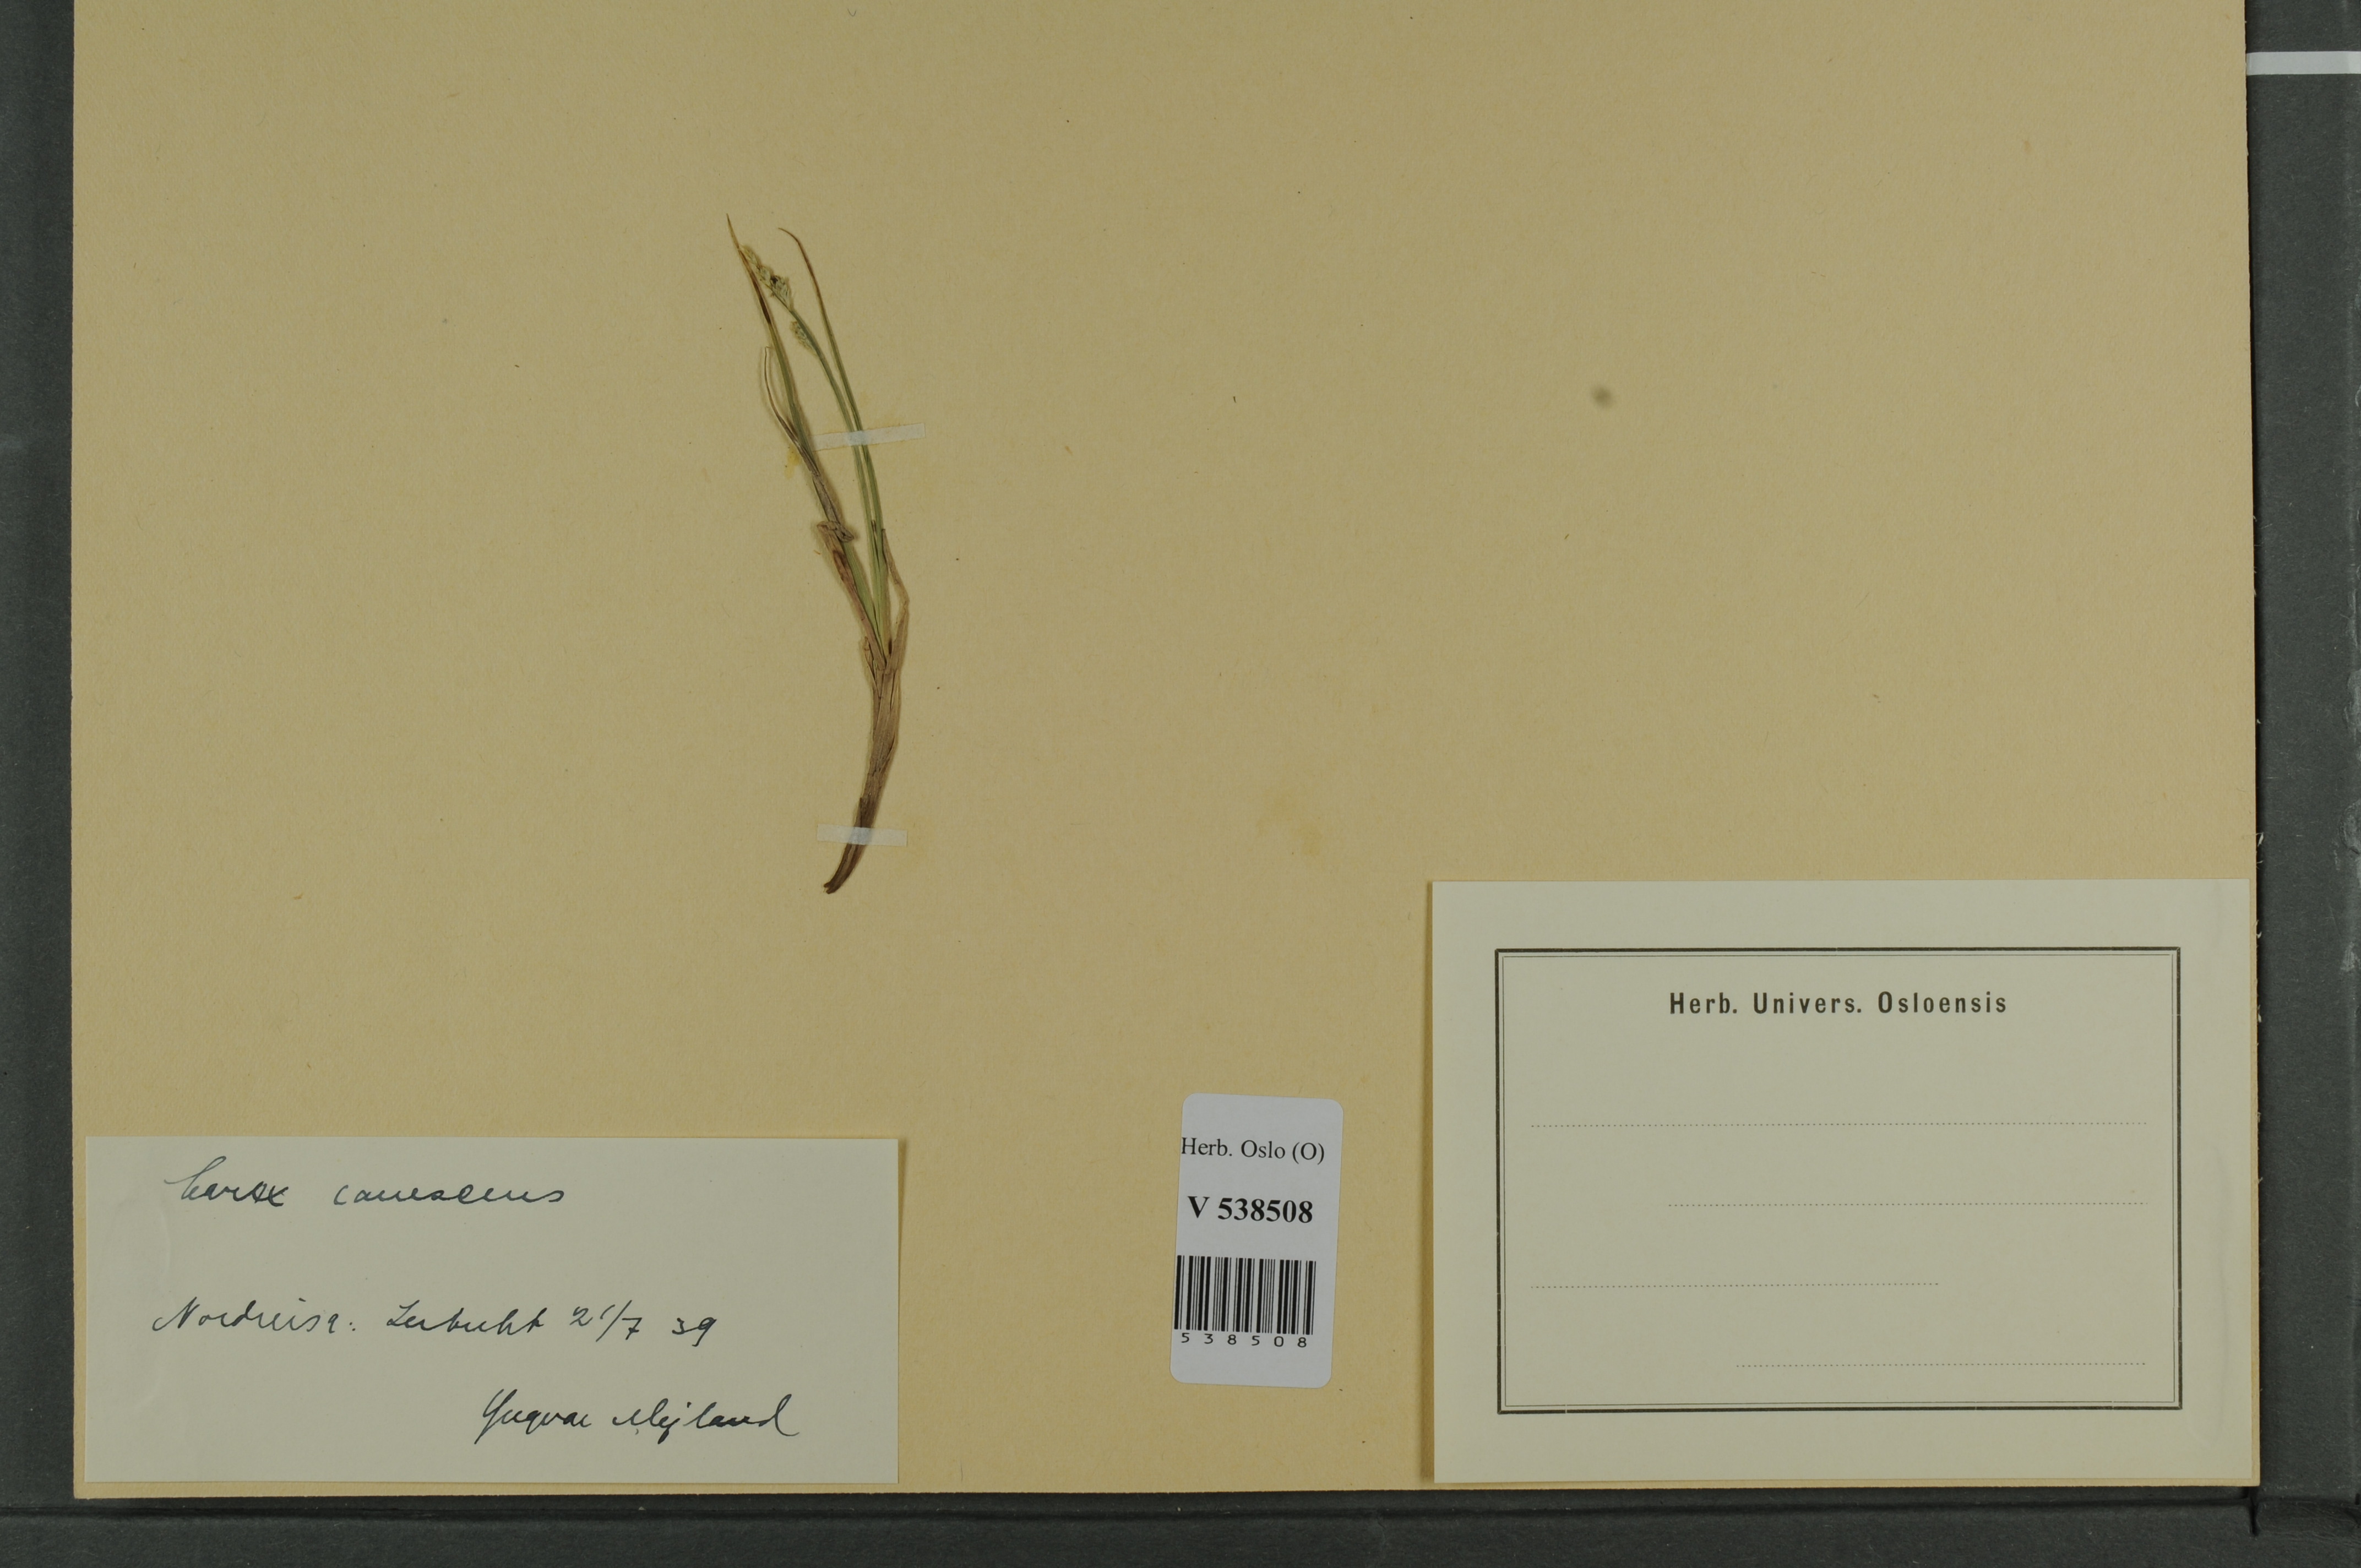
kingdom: Plantae
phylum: Tracheophyta
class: Liliopsida
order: Poales
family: Cyperaceae
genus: Carex
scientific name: Carex canescens
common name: White sedge
